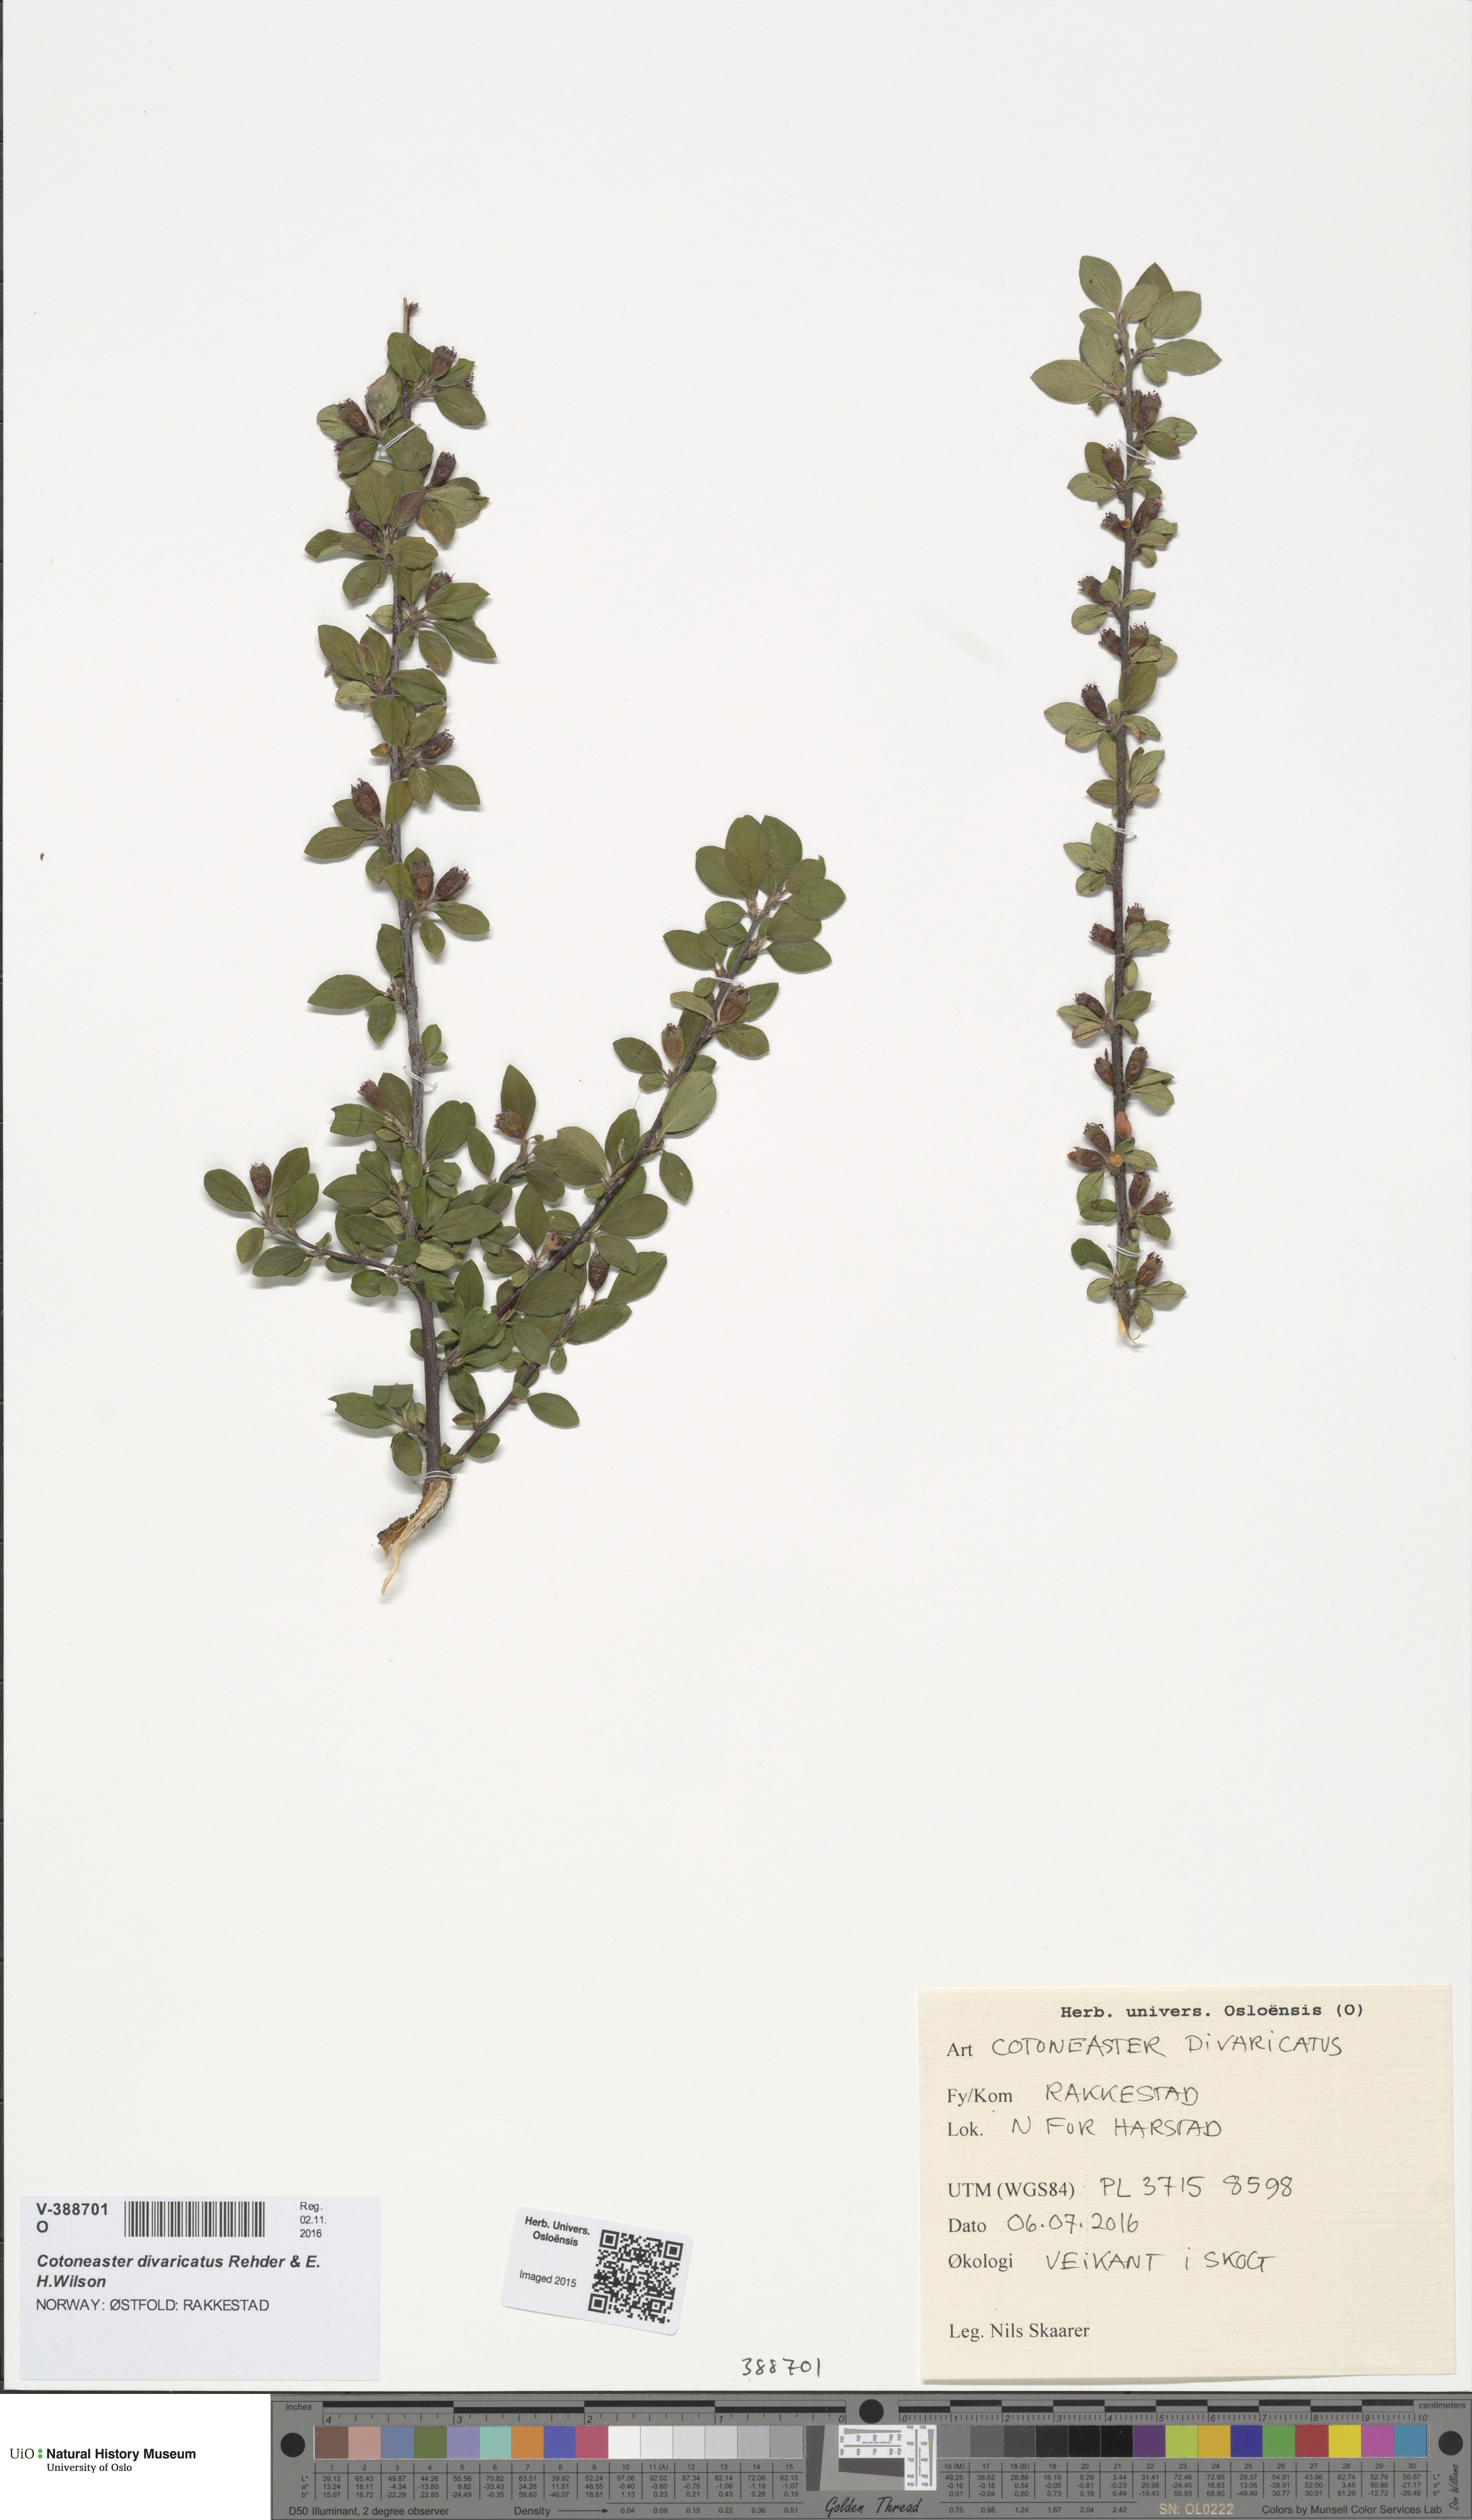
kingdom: Plantae
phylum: Tracheophyta
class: Magnoliopsida
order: Rosales
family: Rosaceae
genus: Cotoneaster
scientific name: Cotoneaster divaricatus
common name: Spreading cotoneaster
